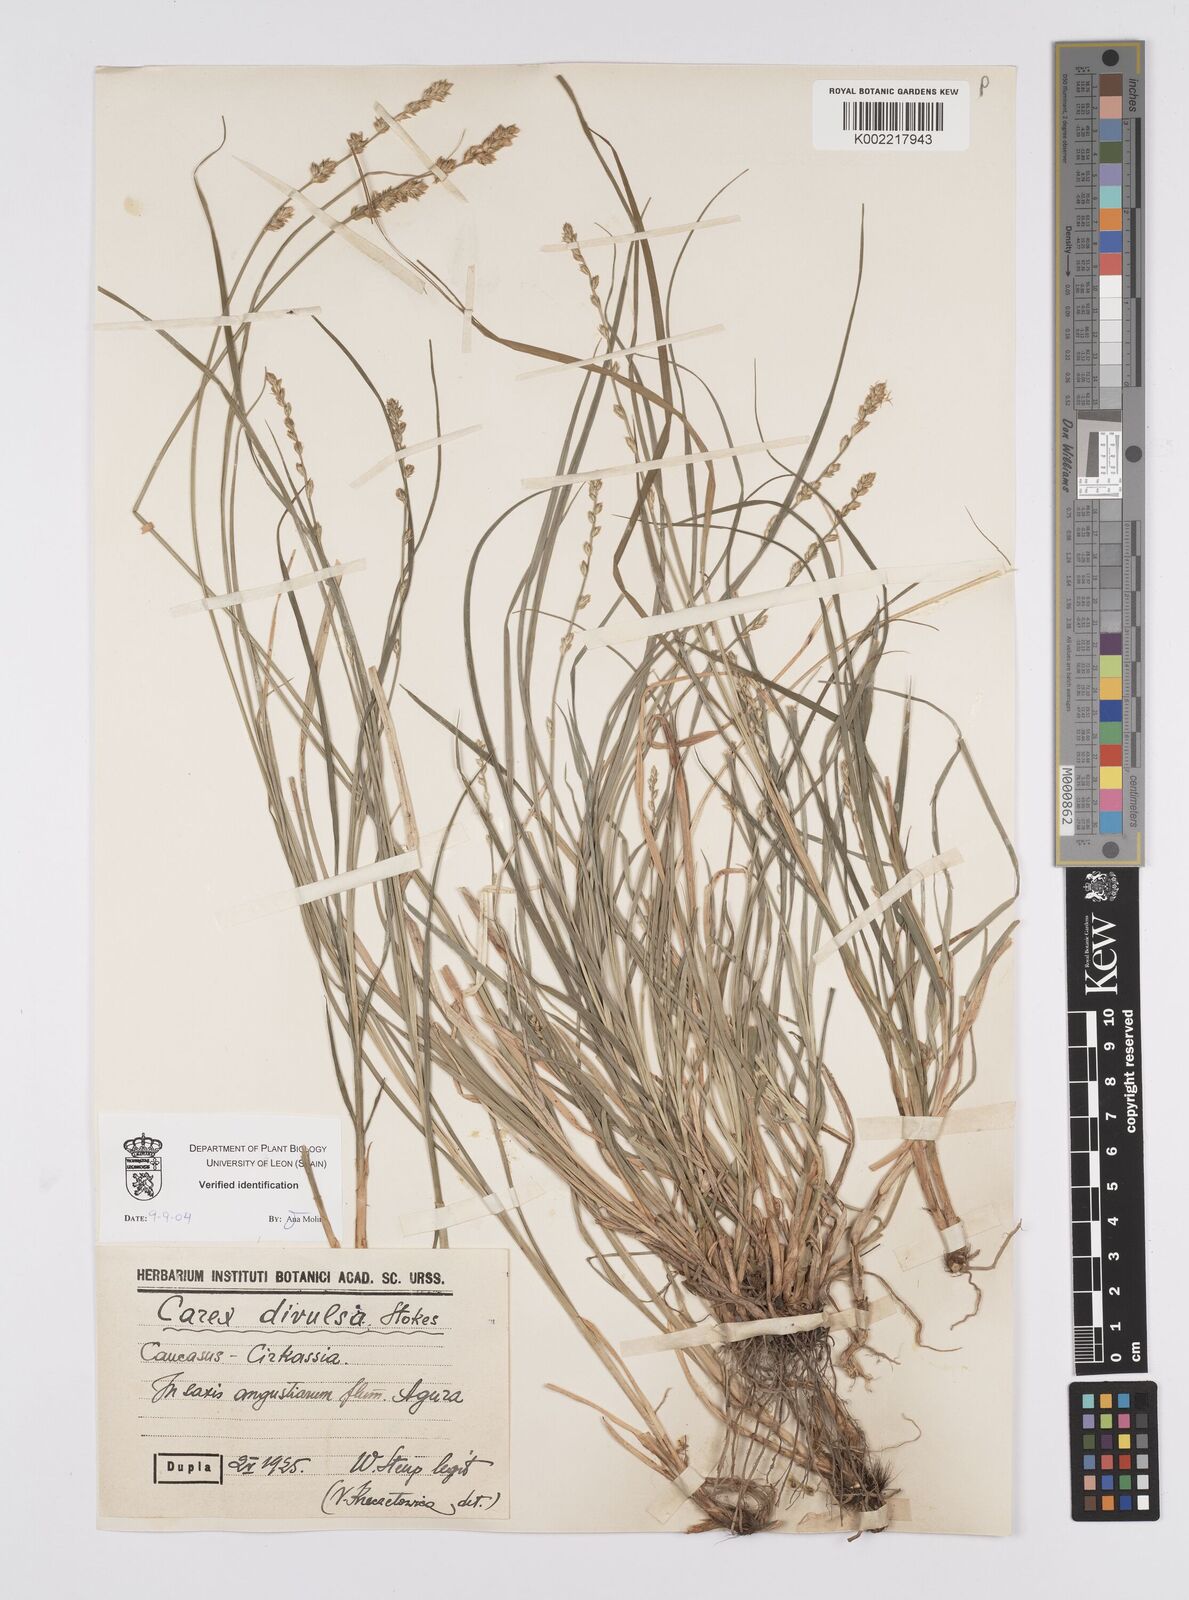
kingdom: Plantae
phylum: Tracheophyta
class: Liliopsida
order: Poales
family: Cyperaceae
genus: Carex
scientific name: Carex divulsa
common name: Grassland sedge
